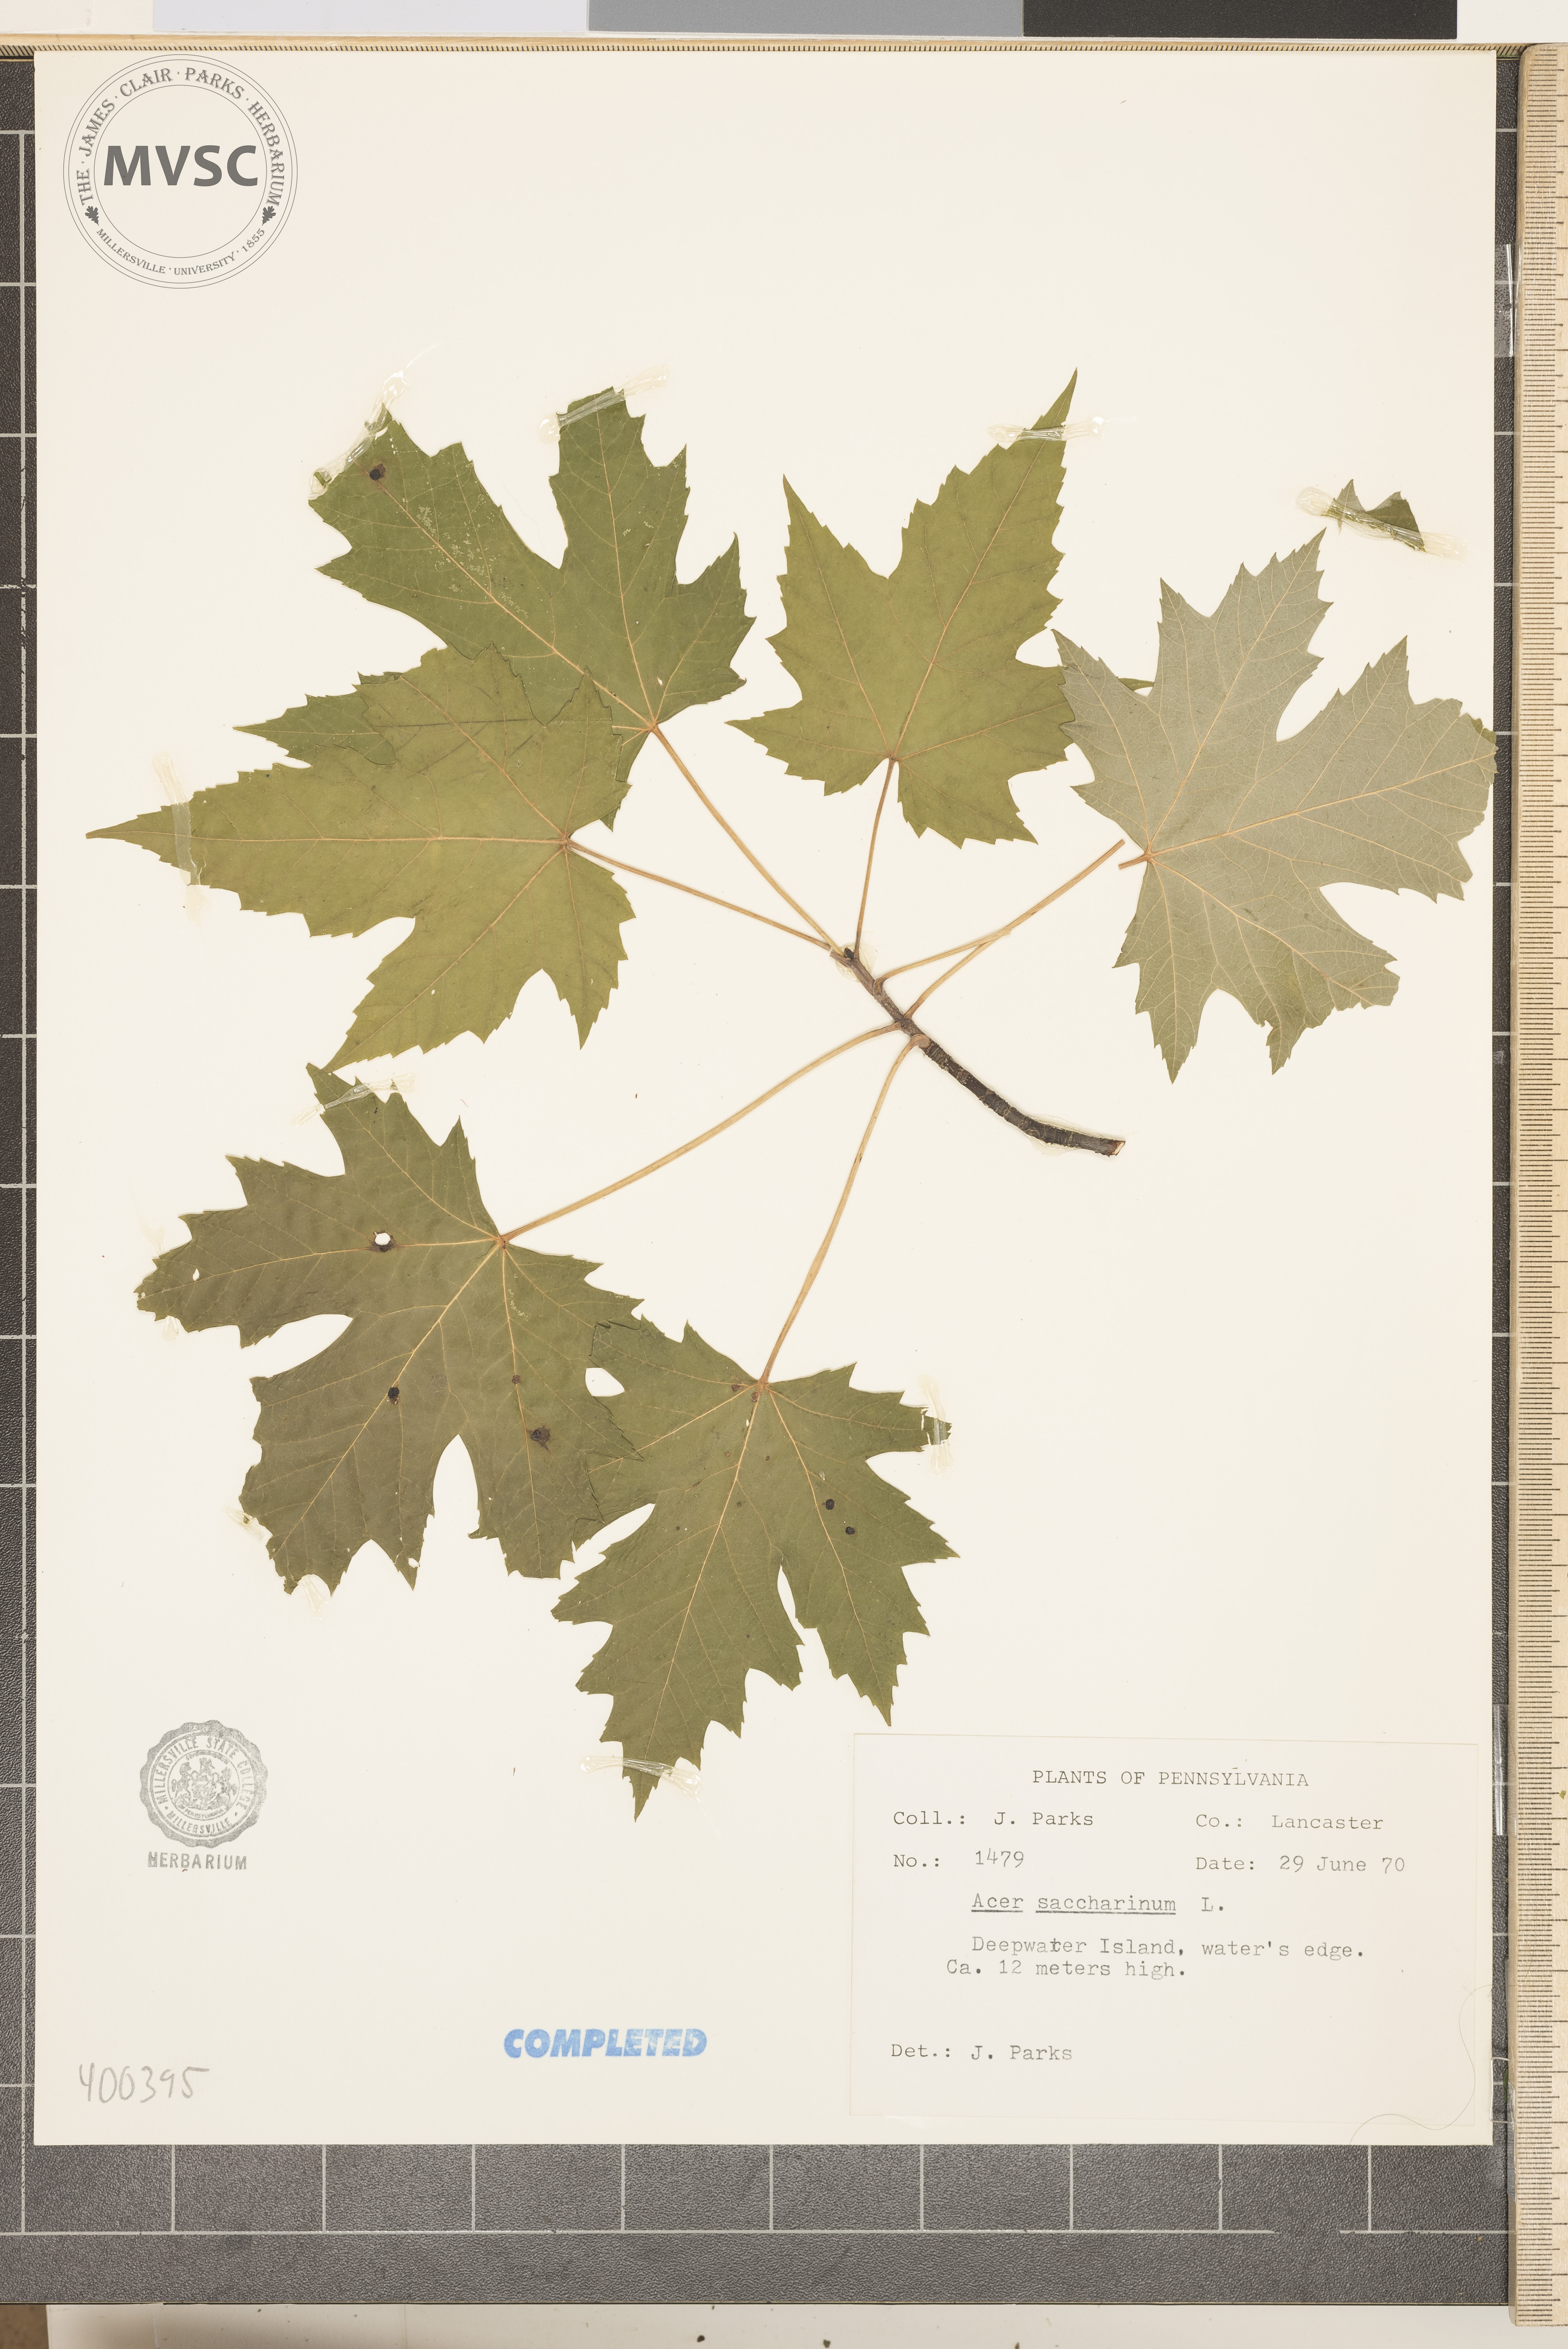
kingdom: Plantae
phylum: Tracheophyta
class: Magnoliopsida
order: Sapindales
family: Sapindaceae
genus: Acer
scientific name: Acer saccharinum
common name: silver maple
